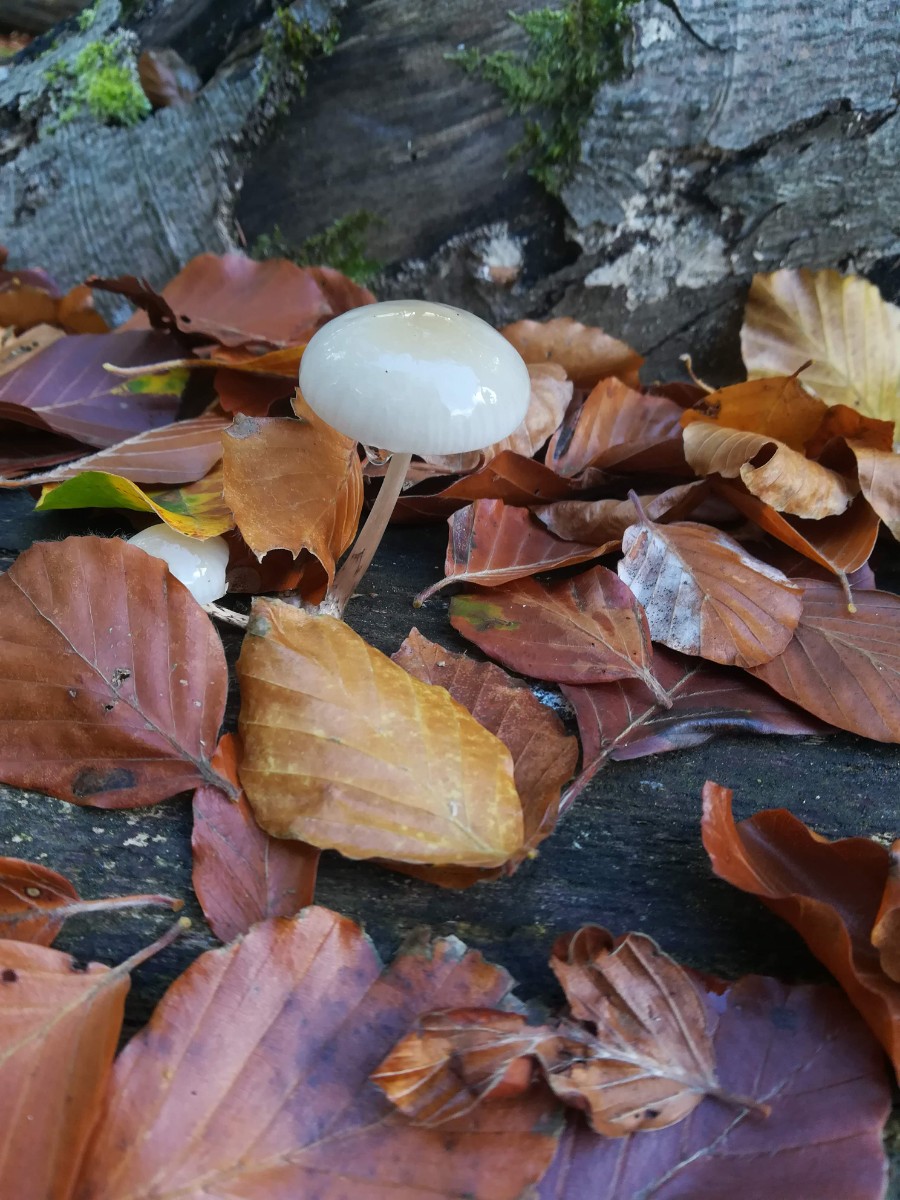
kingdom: Fungi
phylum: Basidiomycota
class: Agaricomycetes
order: Agaricales
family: Physalacriaceae
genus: Mucidula
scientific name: Mucidula mucida
